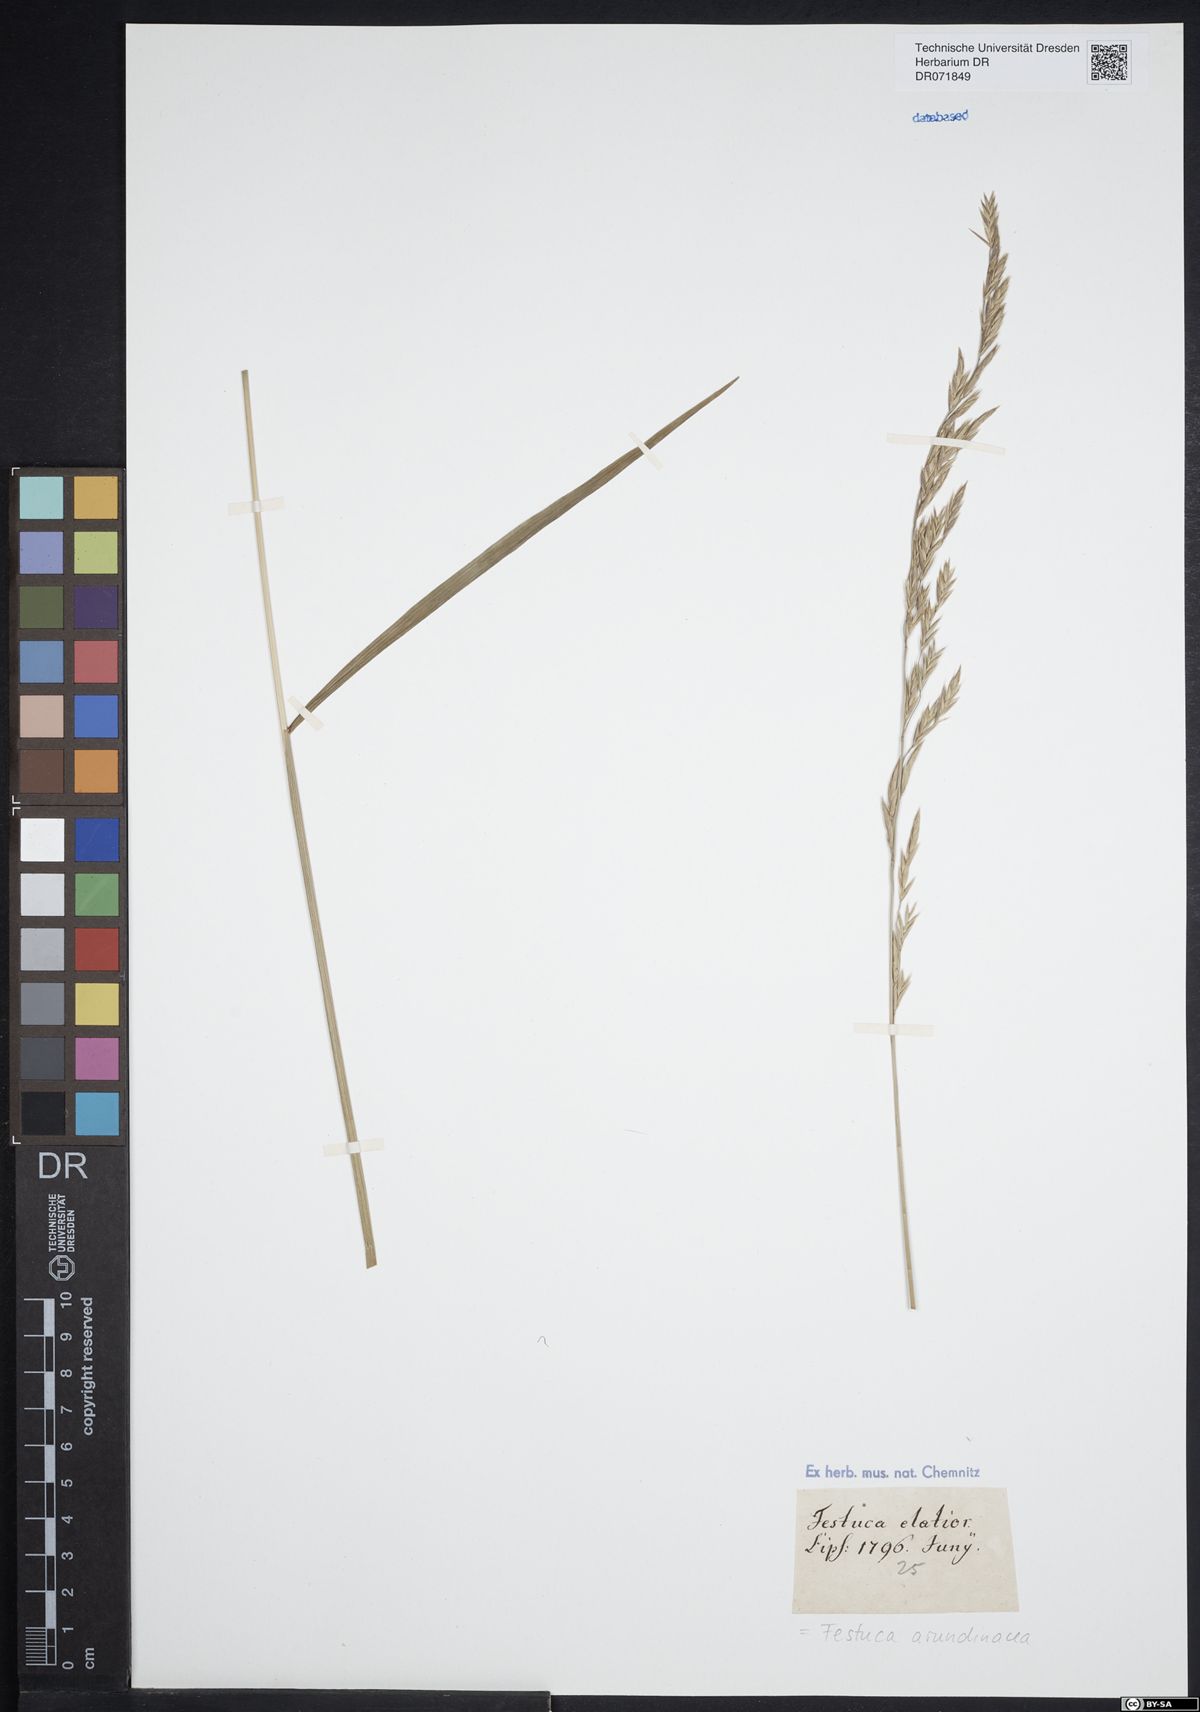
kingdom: Plantae
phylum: Tracheophyta
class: Liliopsida
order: Poales
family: Poaceae
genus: Lolium
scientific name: Lolium arundinaceum
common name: Reed fescue
